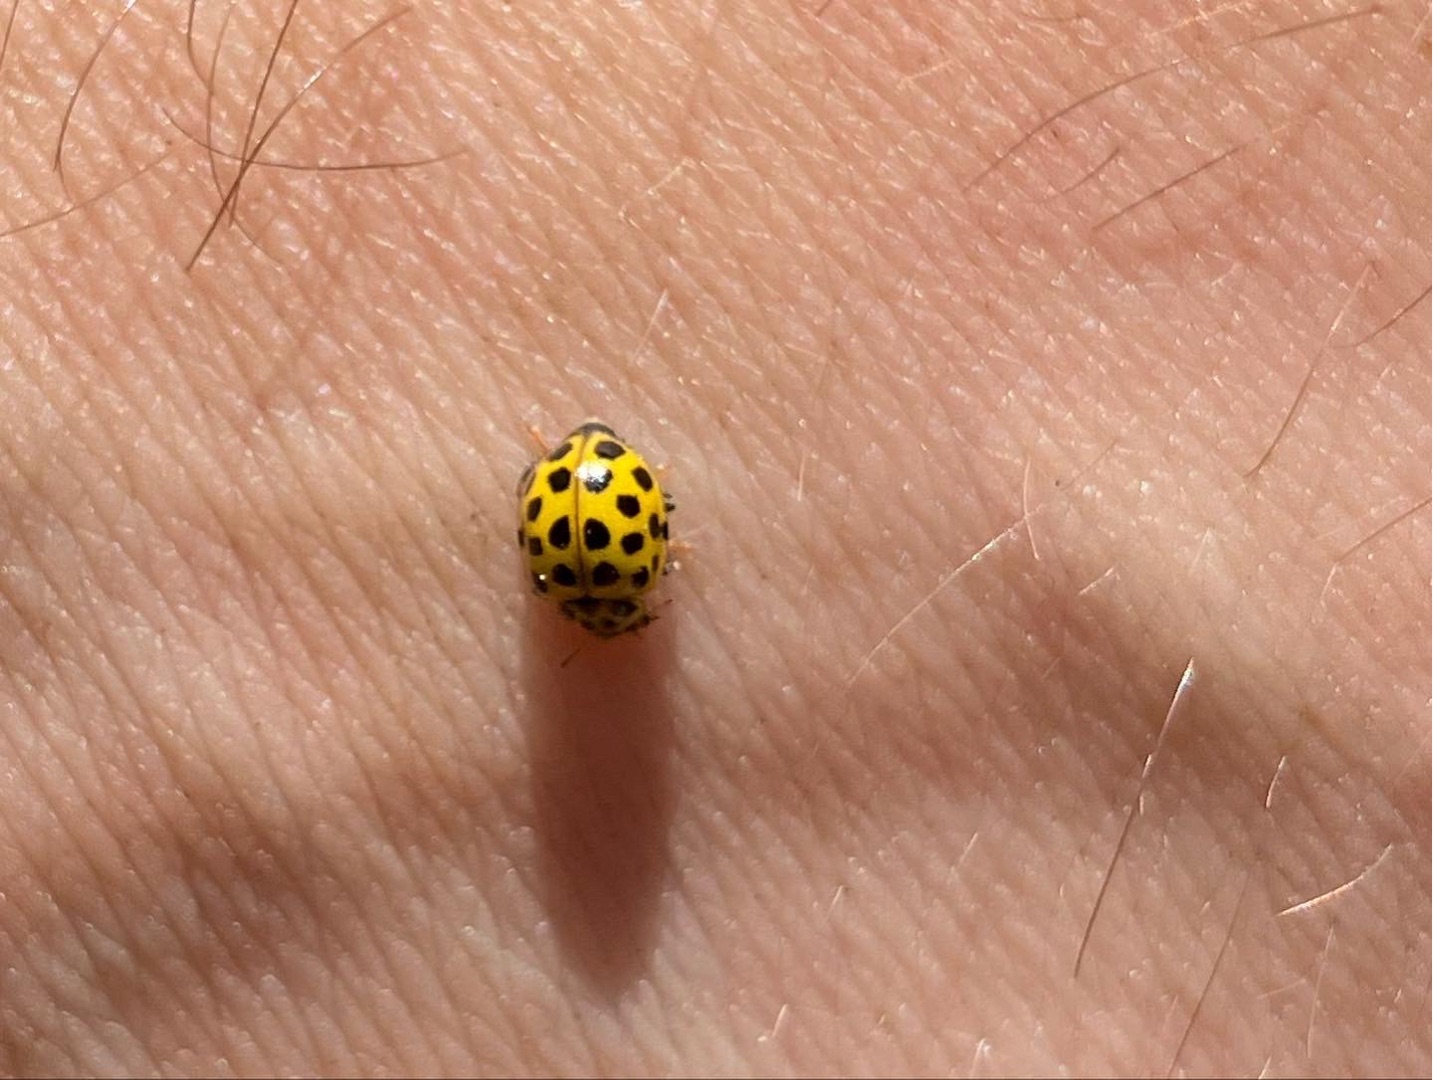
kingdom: Animalia
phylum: Arthropoda
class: Insecta
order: Coleoptera
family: Coccinellidae
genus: Psyllobora
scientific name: Psyllobora vigintiduopunctata
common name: Toogtyveplettet mariehøne
